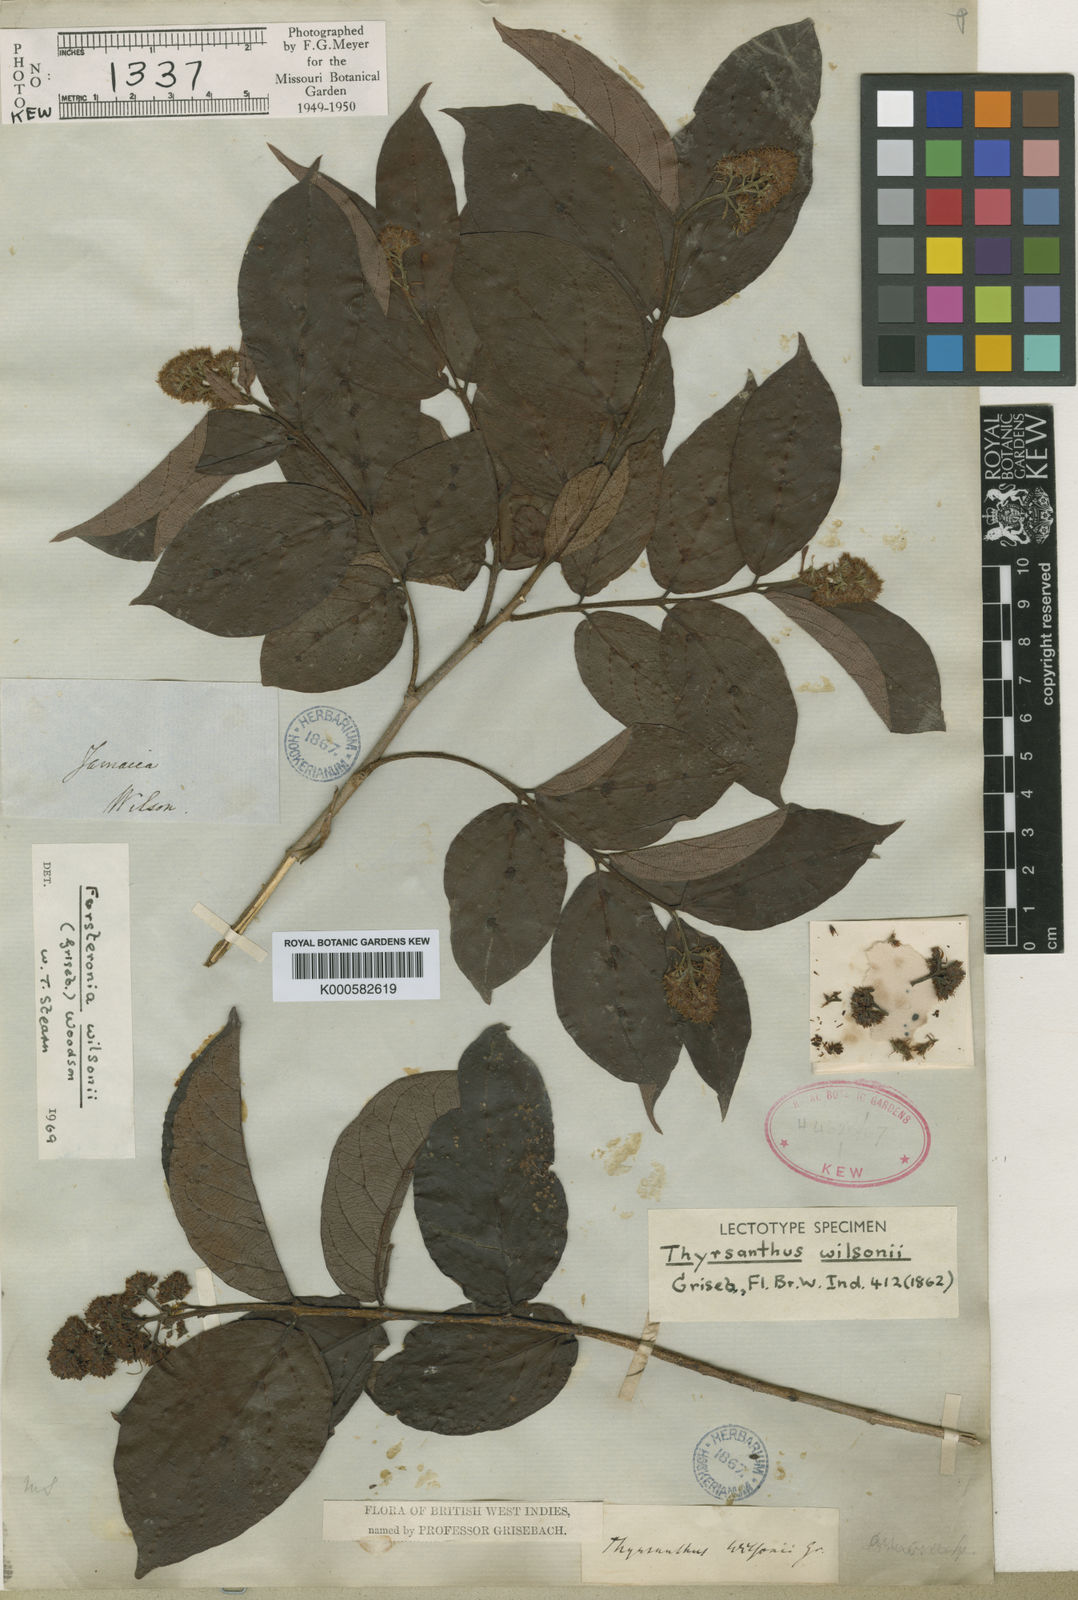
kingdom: Plantae
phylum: Tracheophyta
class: Magnoliopsida
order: Gentianales
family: Apocynaceae
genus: Forsteronia
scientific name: Forsteronia wilsonii
